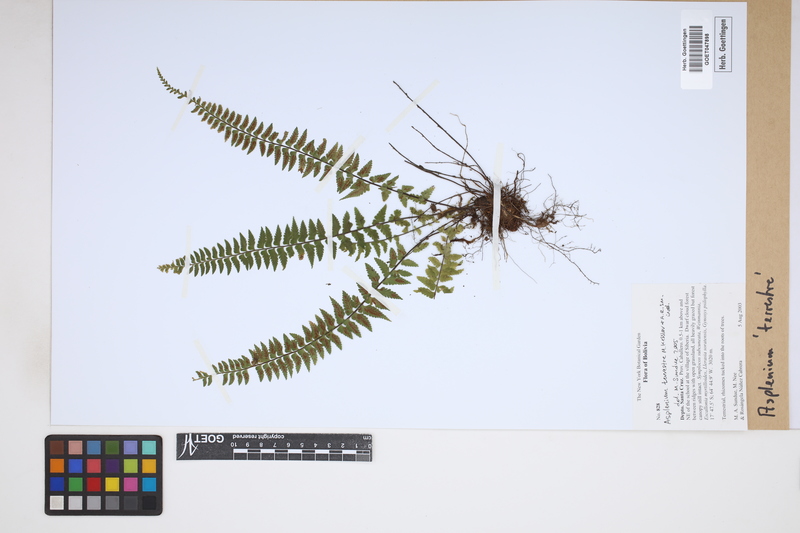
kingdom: Plantae
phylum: Tracheophyta
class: Polypodiopsida
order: Polypodiales
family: Aspleniaceae
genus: Asplenium
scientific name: Asplenium appendiculatum
